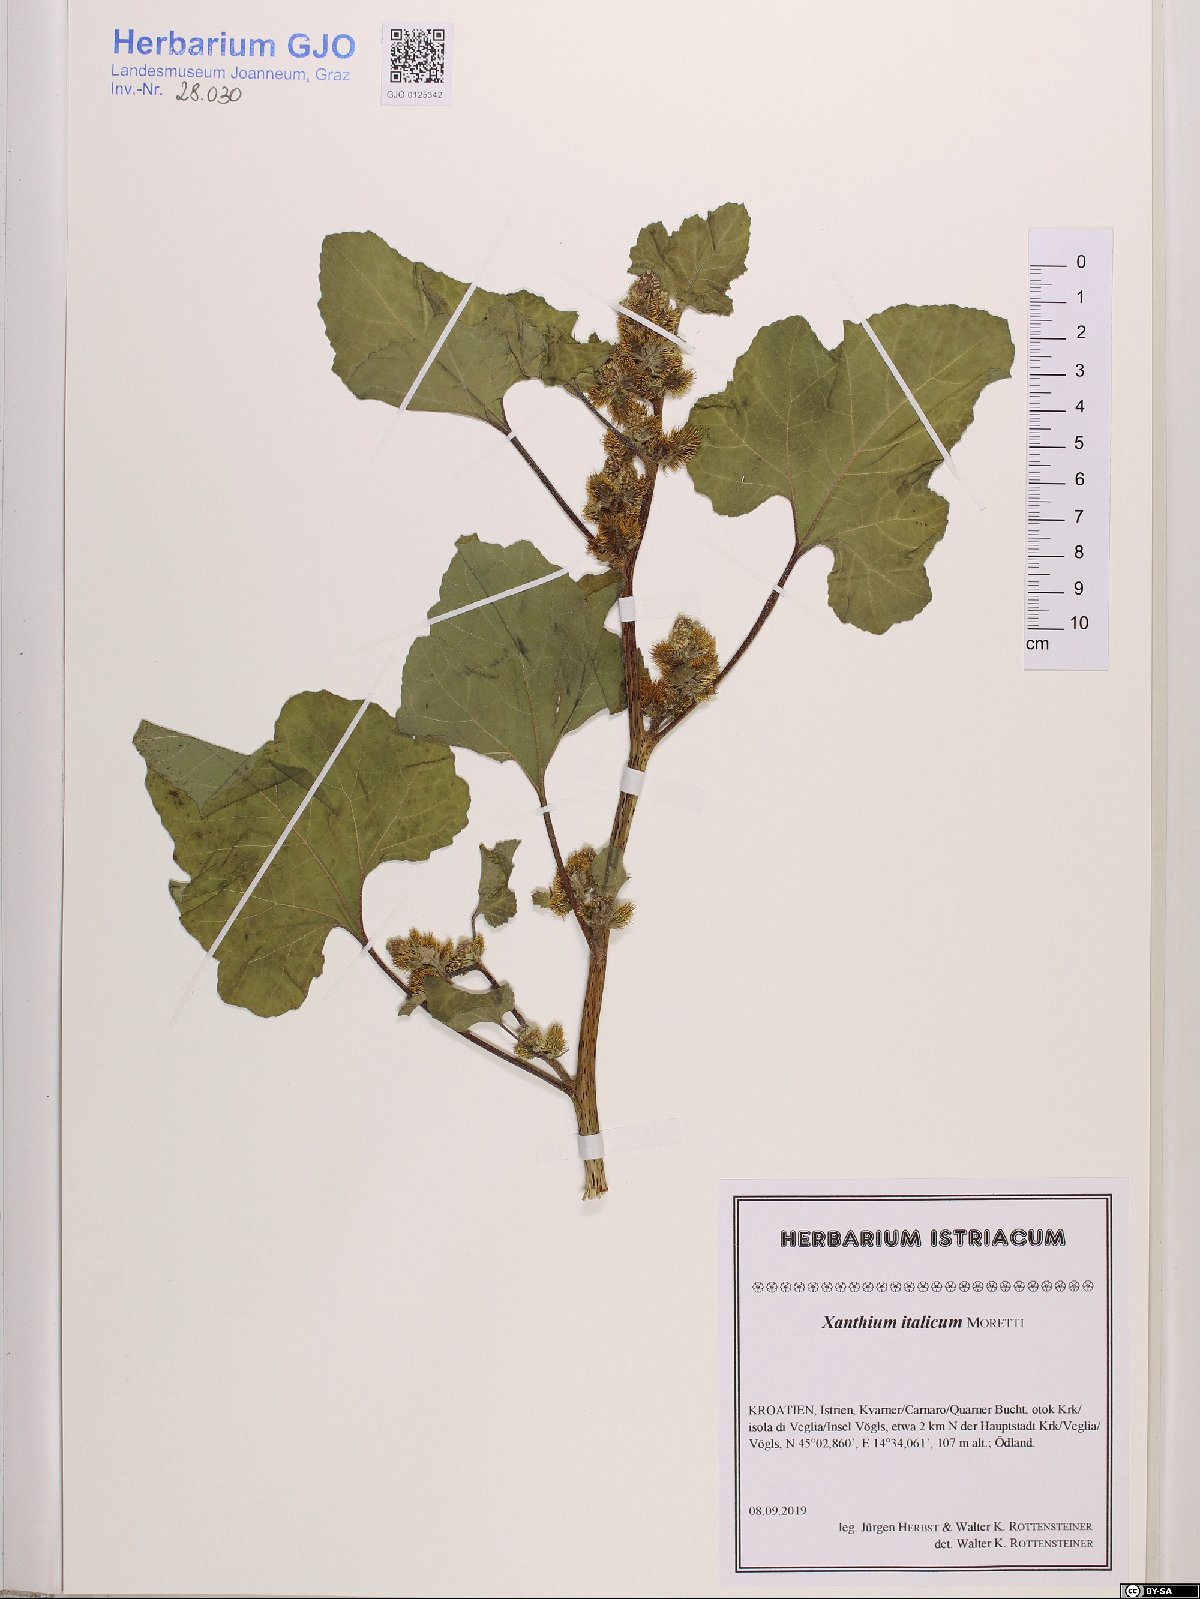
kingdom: Plantae
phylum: Tracheophyta
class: Magnoliopsida
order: Asterales
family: Asteraceae
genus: Xanthium
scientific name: Xanthium orientale
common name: Californian burr
